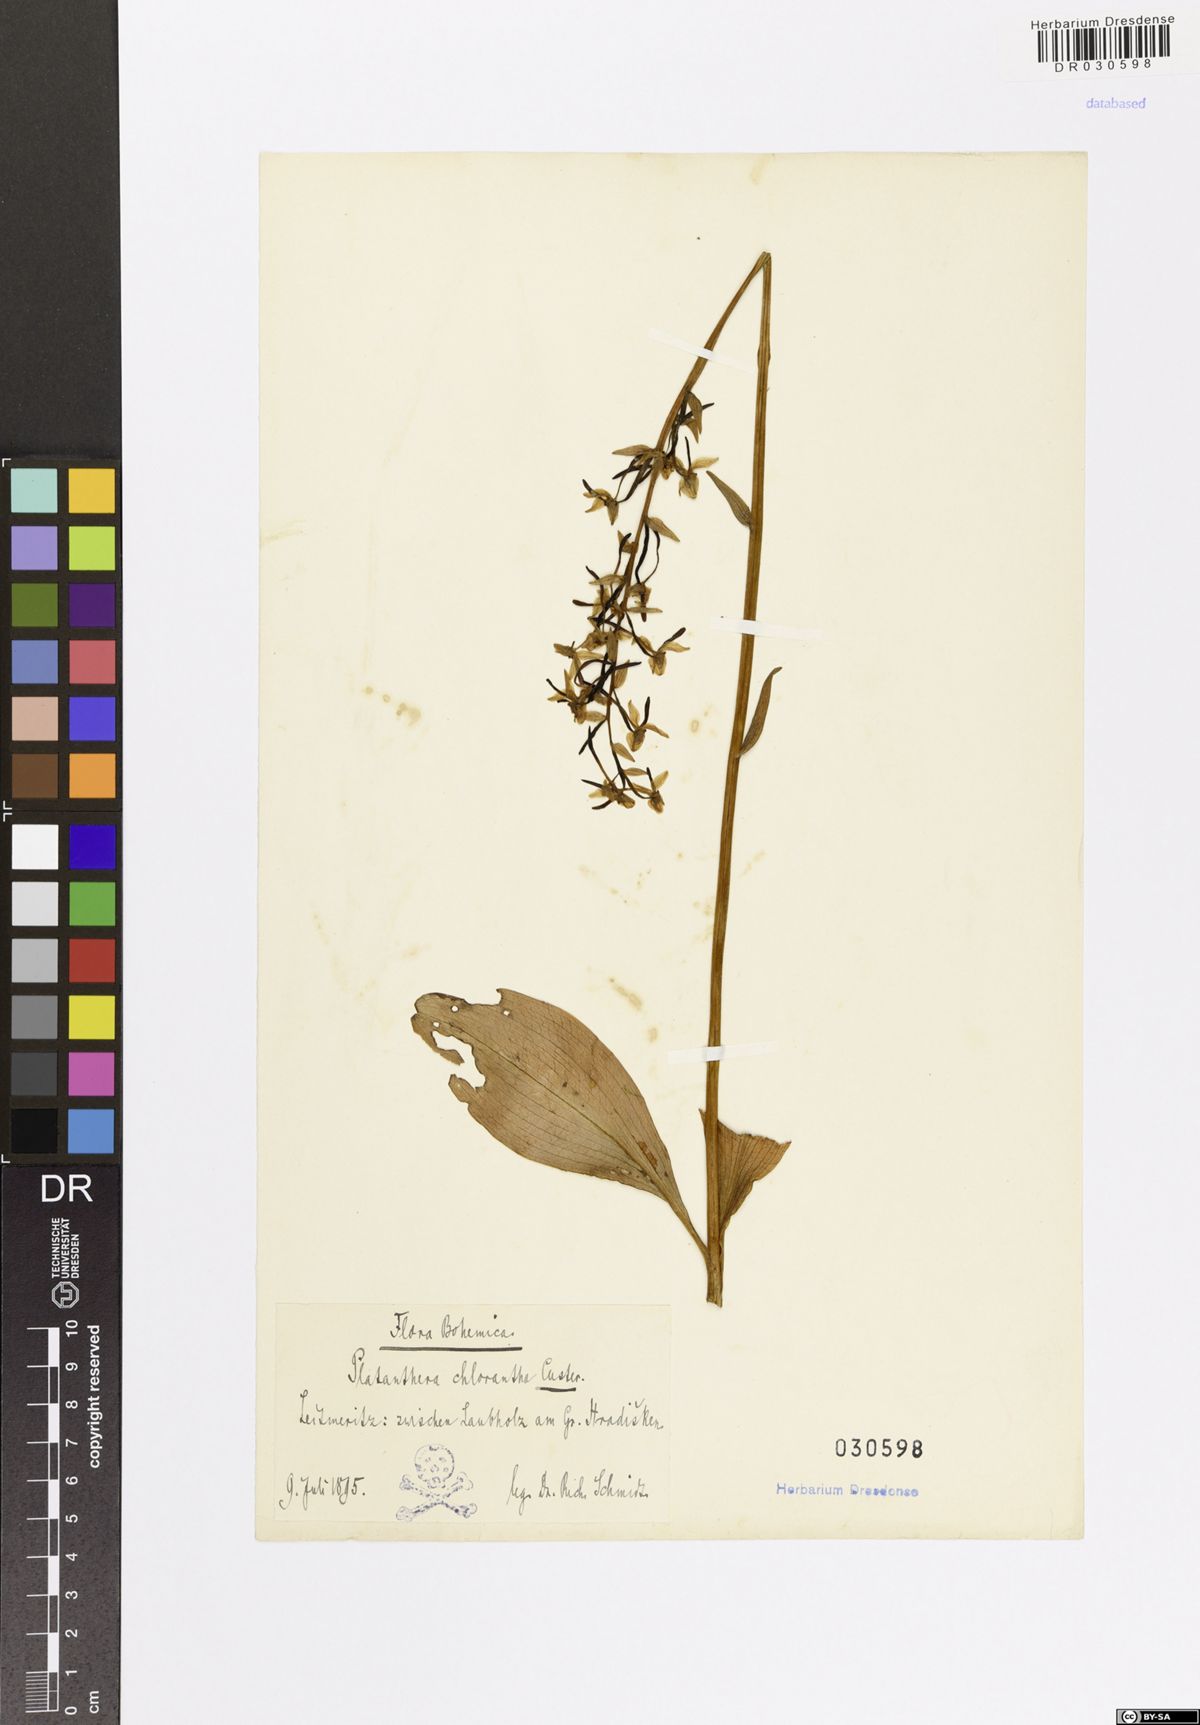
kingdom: Plantae
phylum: Tracheophyta
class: Liliopsida
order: Asparagales
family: Orchidaceae
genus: Platanthera
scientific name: Platanthera chlorantha
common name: Greater butterfly-orchid
